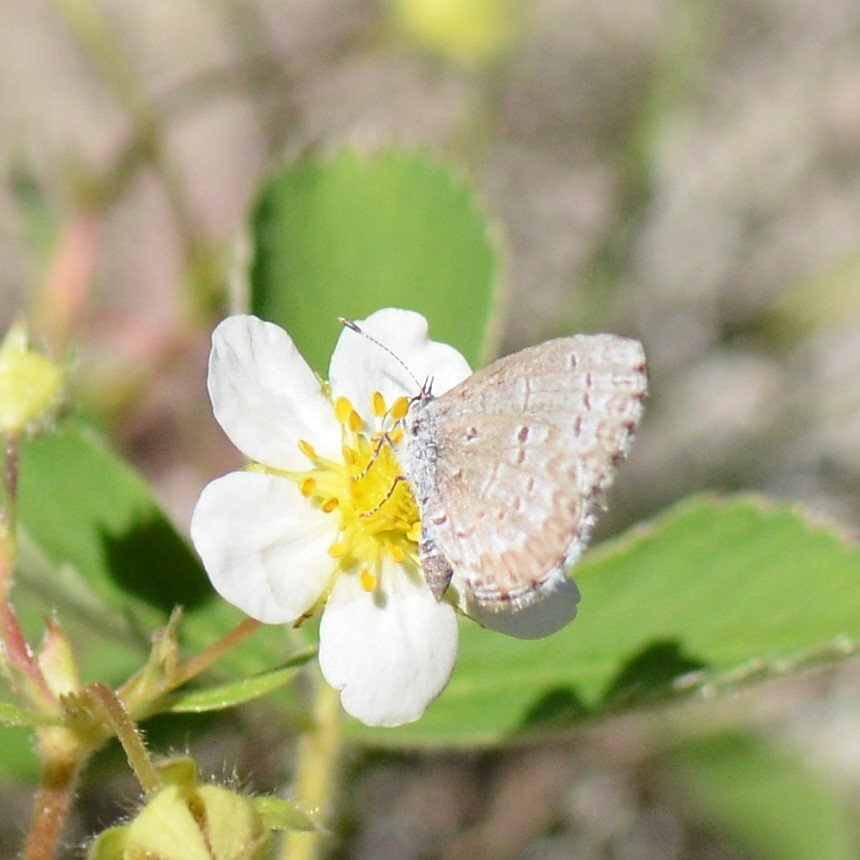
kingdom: Animalia
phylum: Arthropoda
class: Insecta
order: Lepidoptera
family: Lycaenidae
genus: Celastrina
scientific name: Celastrina lucia
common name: Northern Spring Azure
